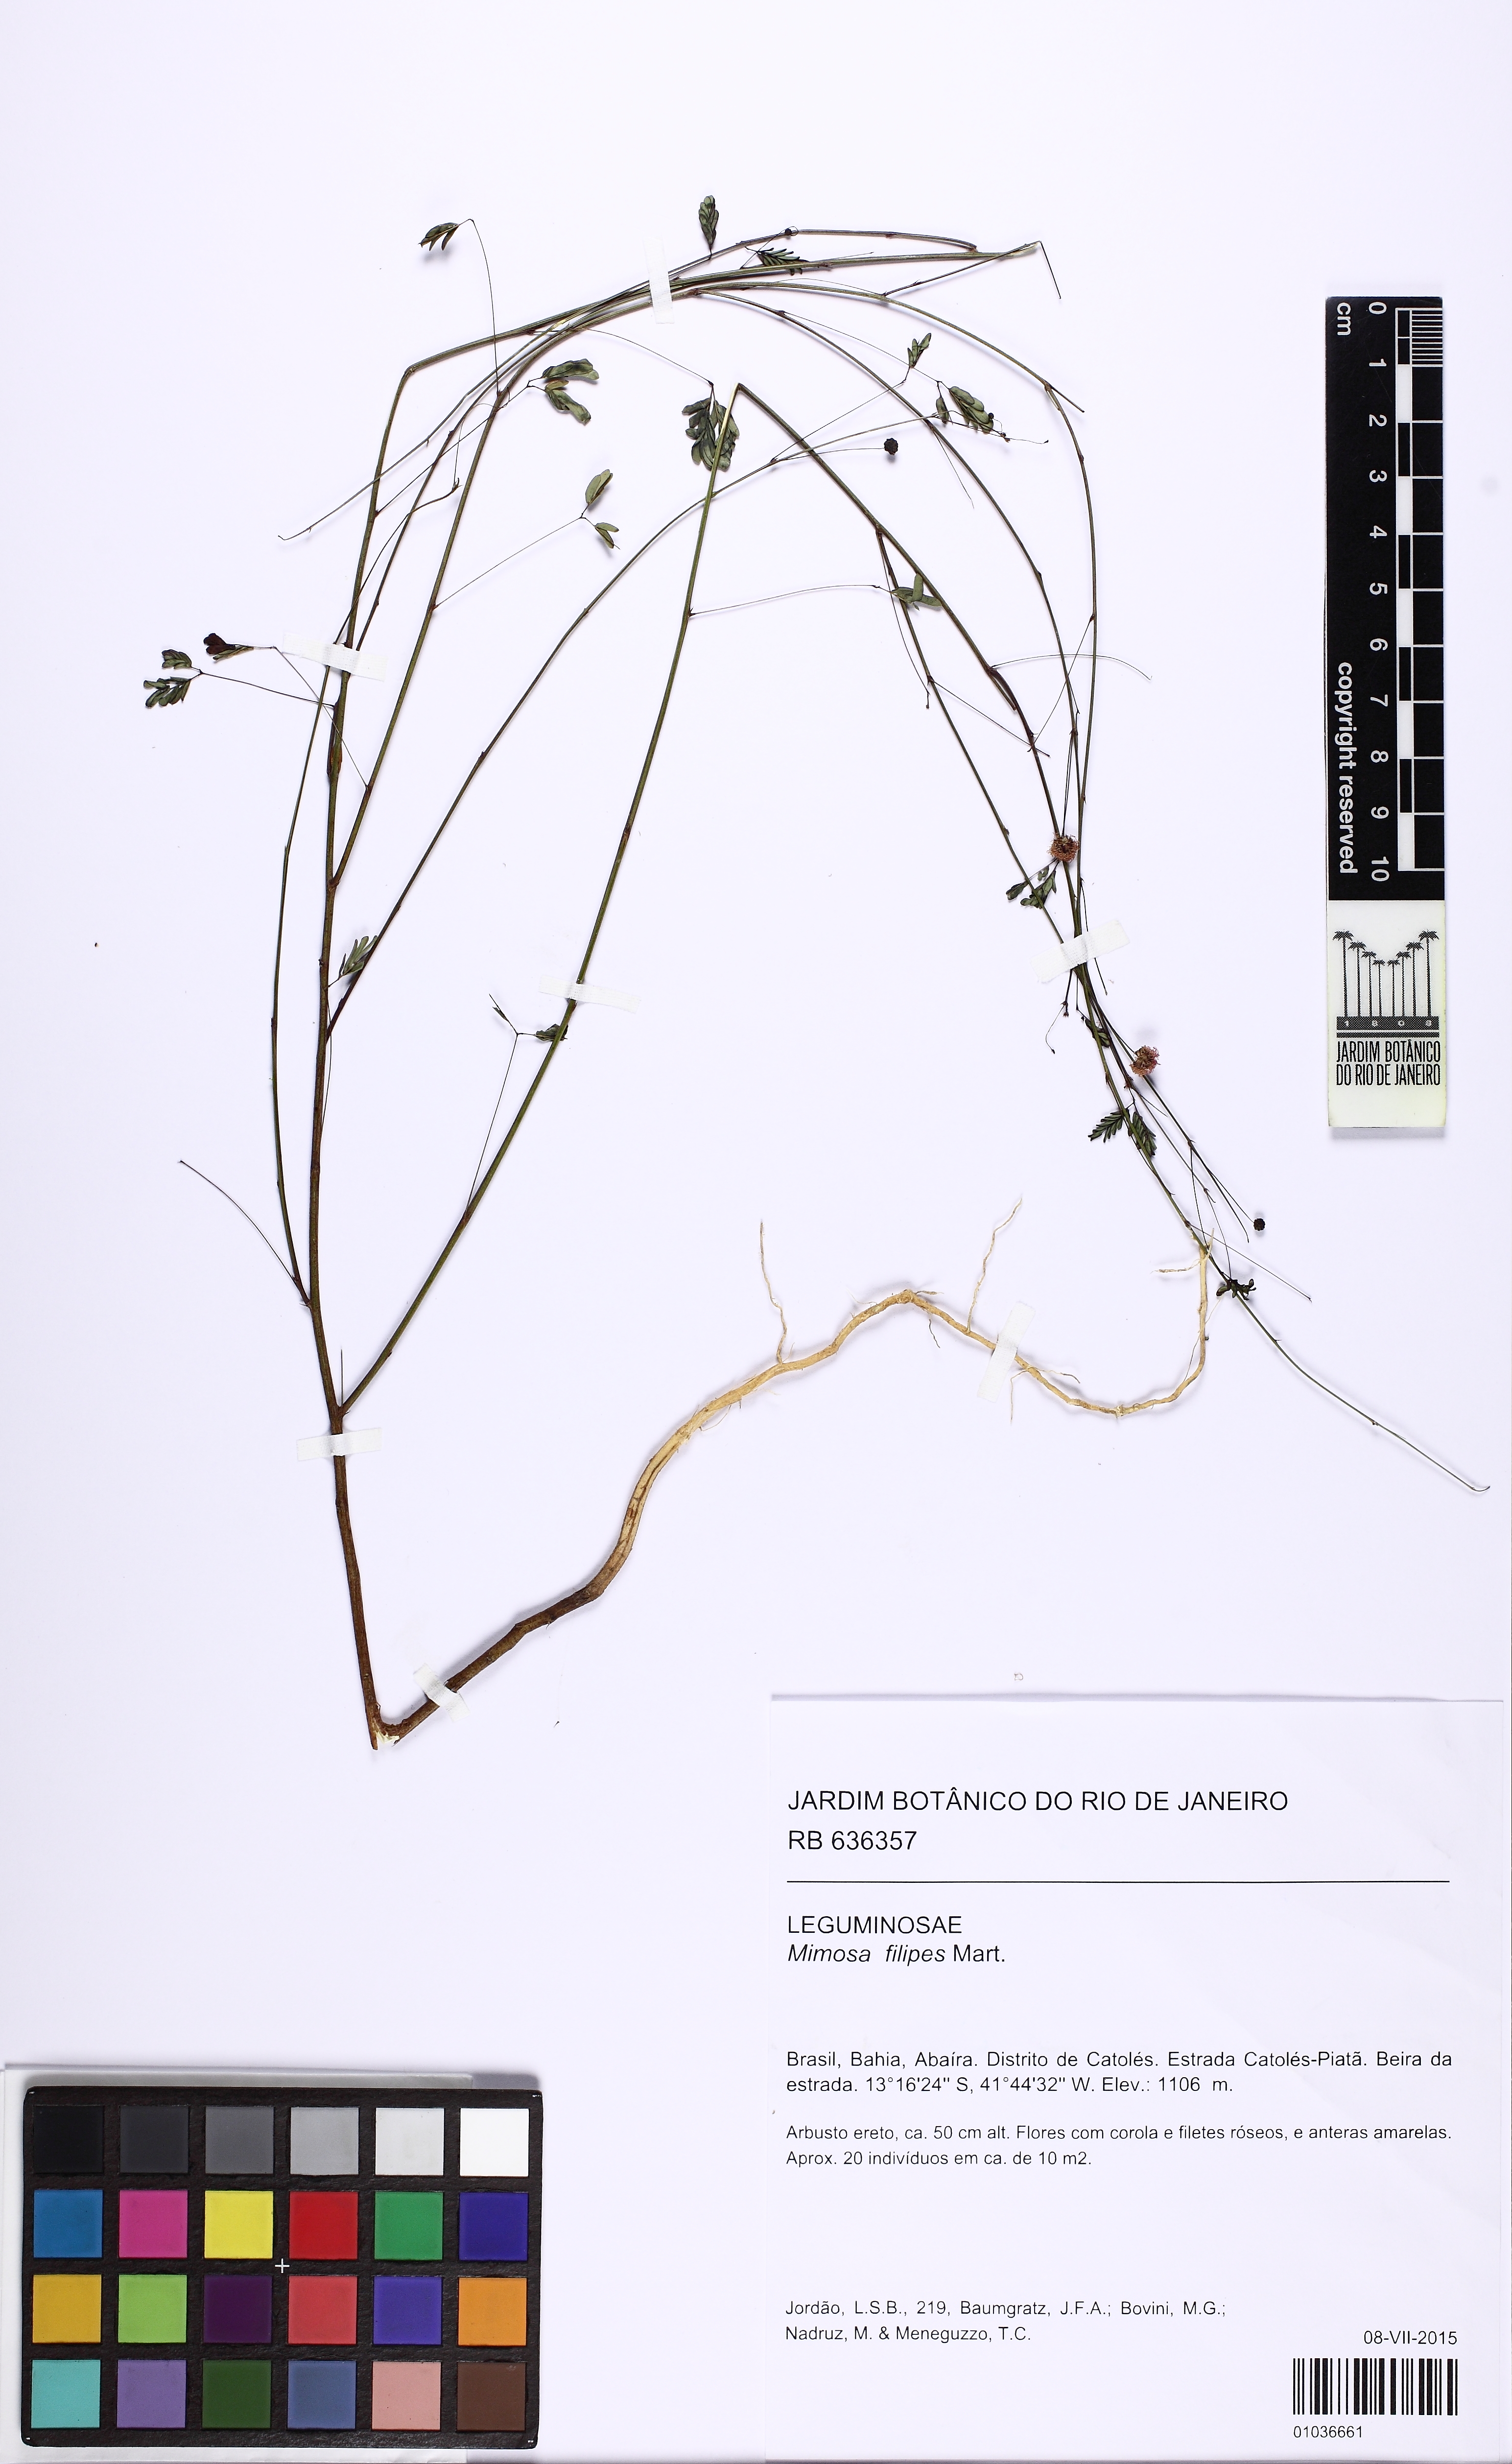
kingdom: Plantae
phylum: Tracheophyta
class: Magnoliopsida
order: Fabales
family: Fabaceae
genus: Mimosa
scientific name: Mimosa filipes
